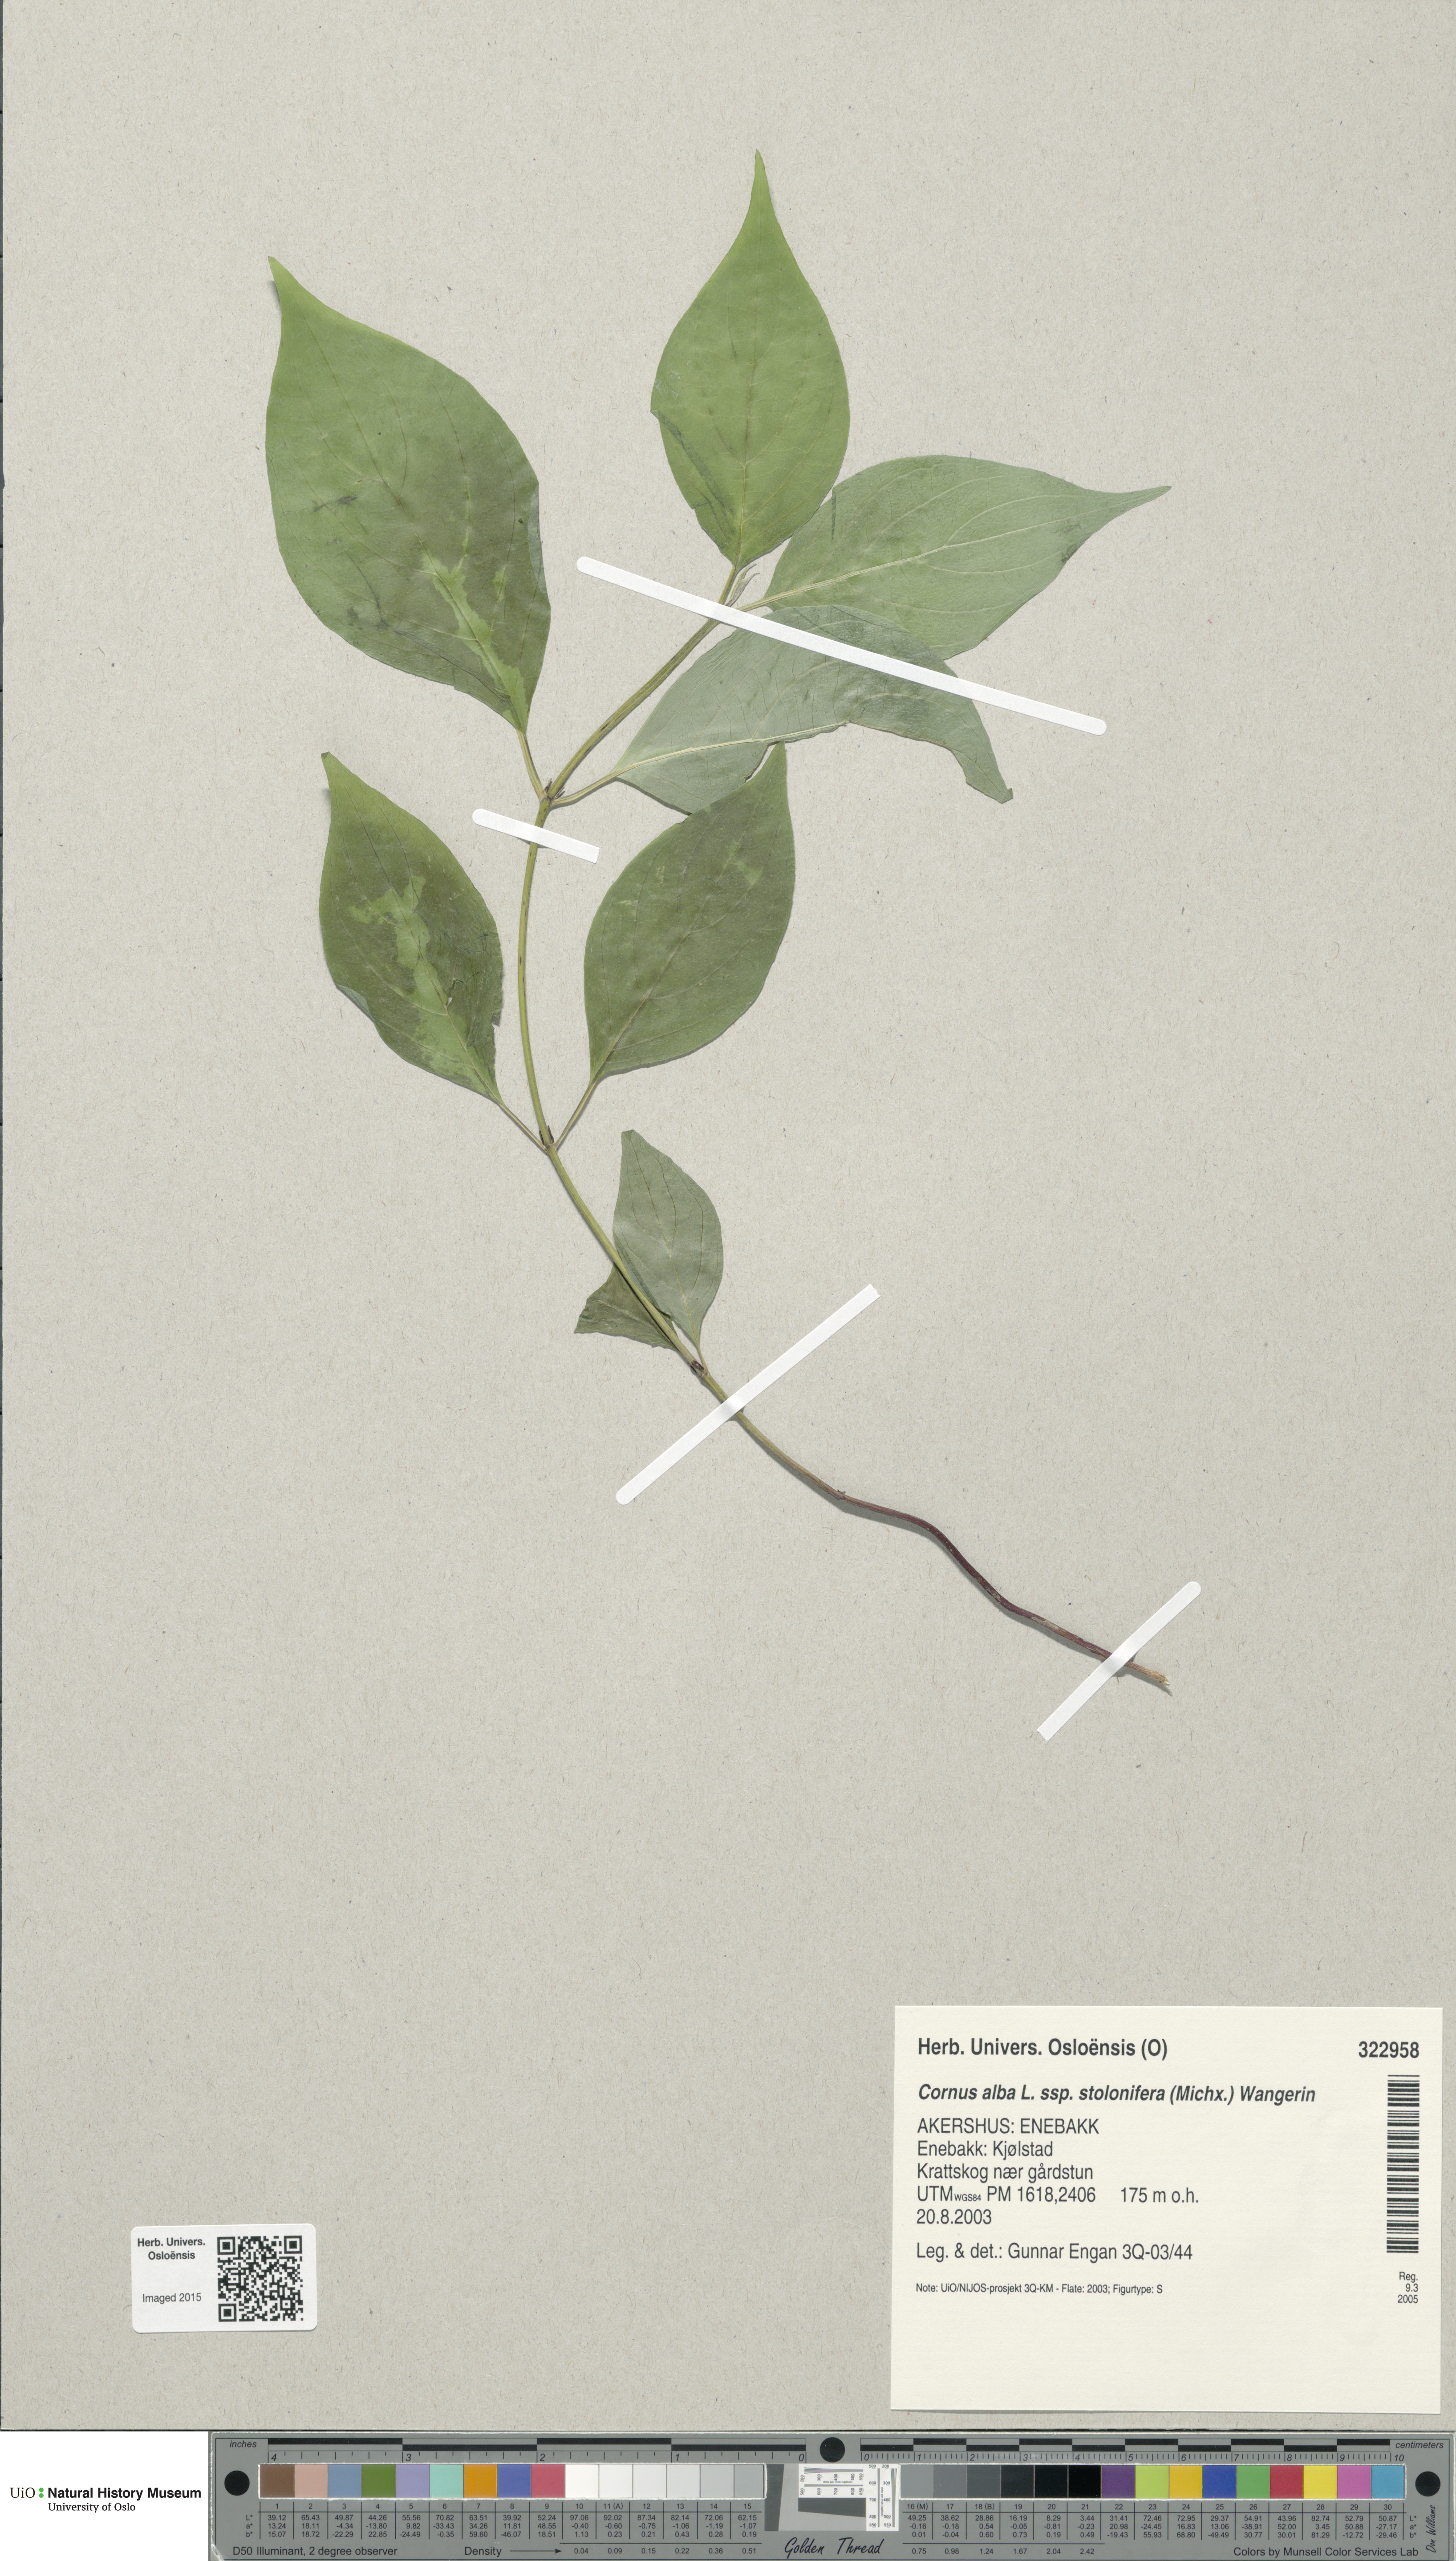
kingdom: Plantae
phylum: Tracheophyta
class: Magnoliopsida
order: Cornales
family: Cornaceae
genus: Cornus
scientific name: Cornus sericea
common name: Red-osier dogwood
